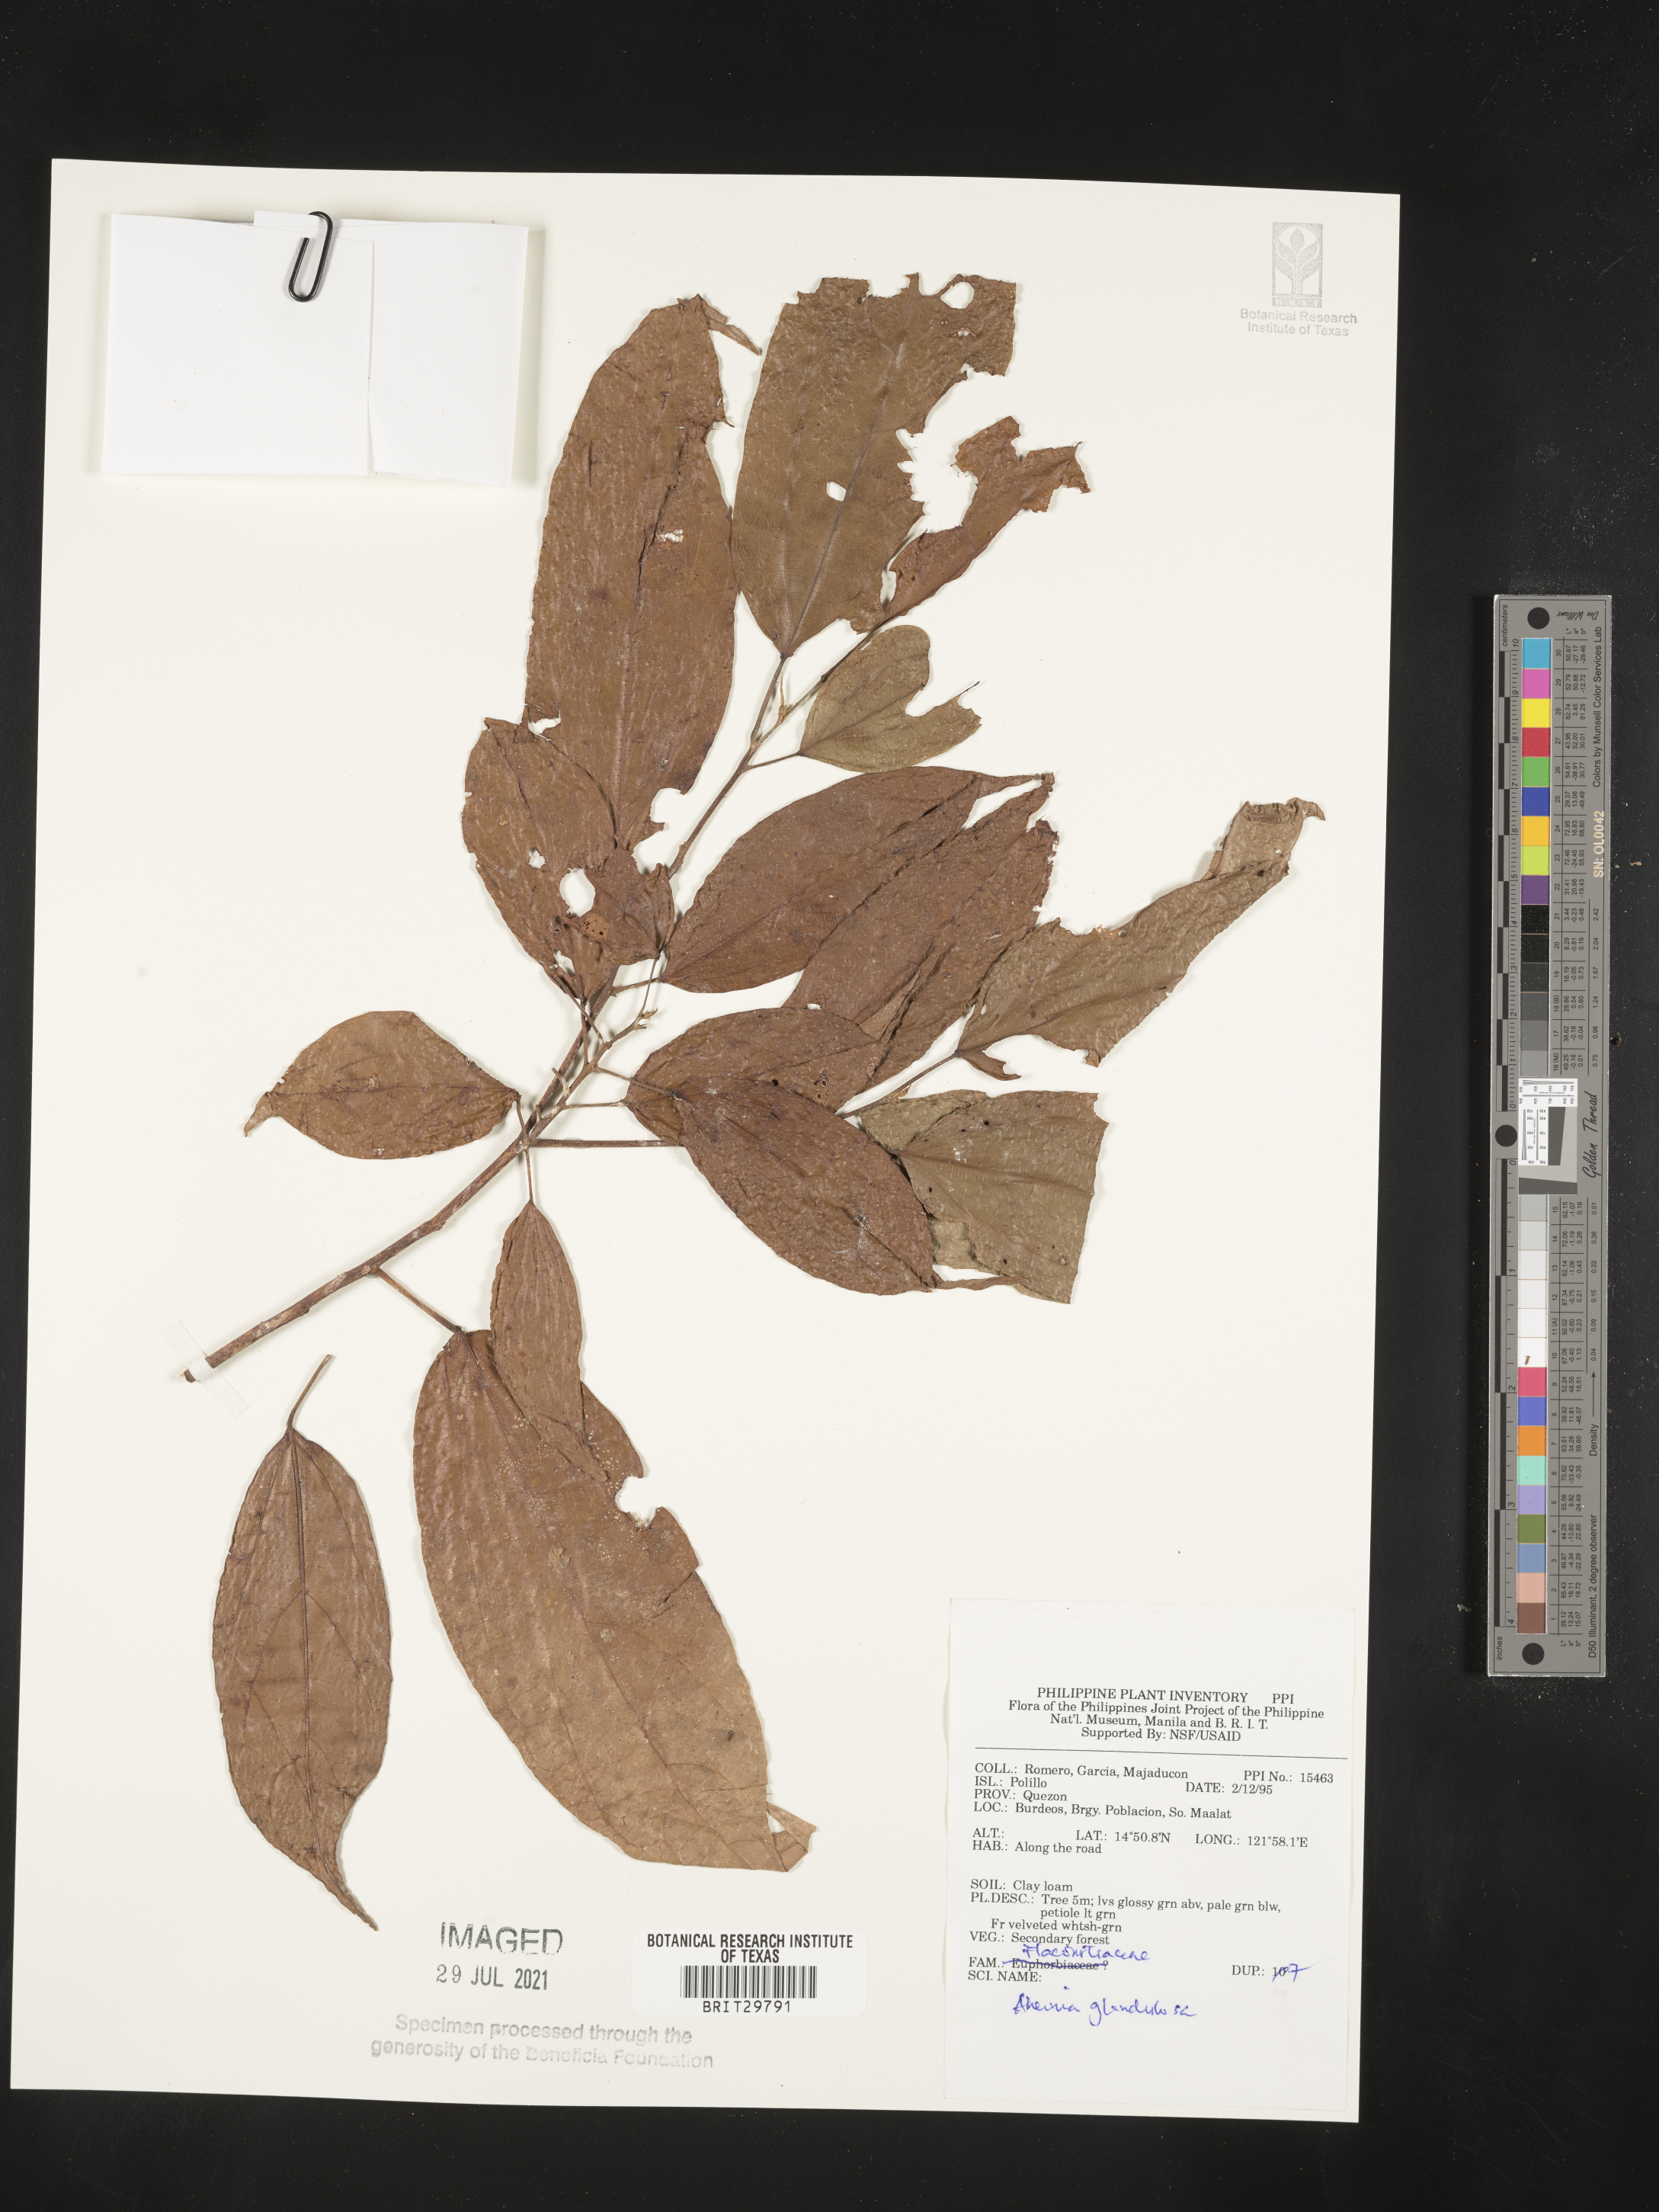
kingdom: Plantae
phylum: Tracheophyta
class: Magnoliopsida
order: Malpighiales
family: Achariaceae
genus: Ahernia
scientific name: Ahernia glandulosa
